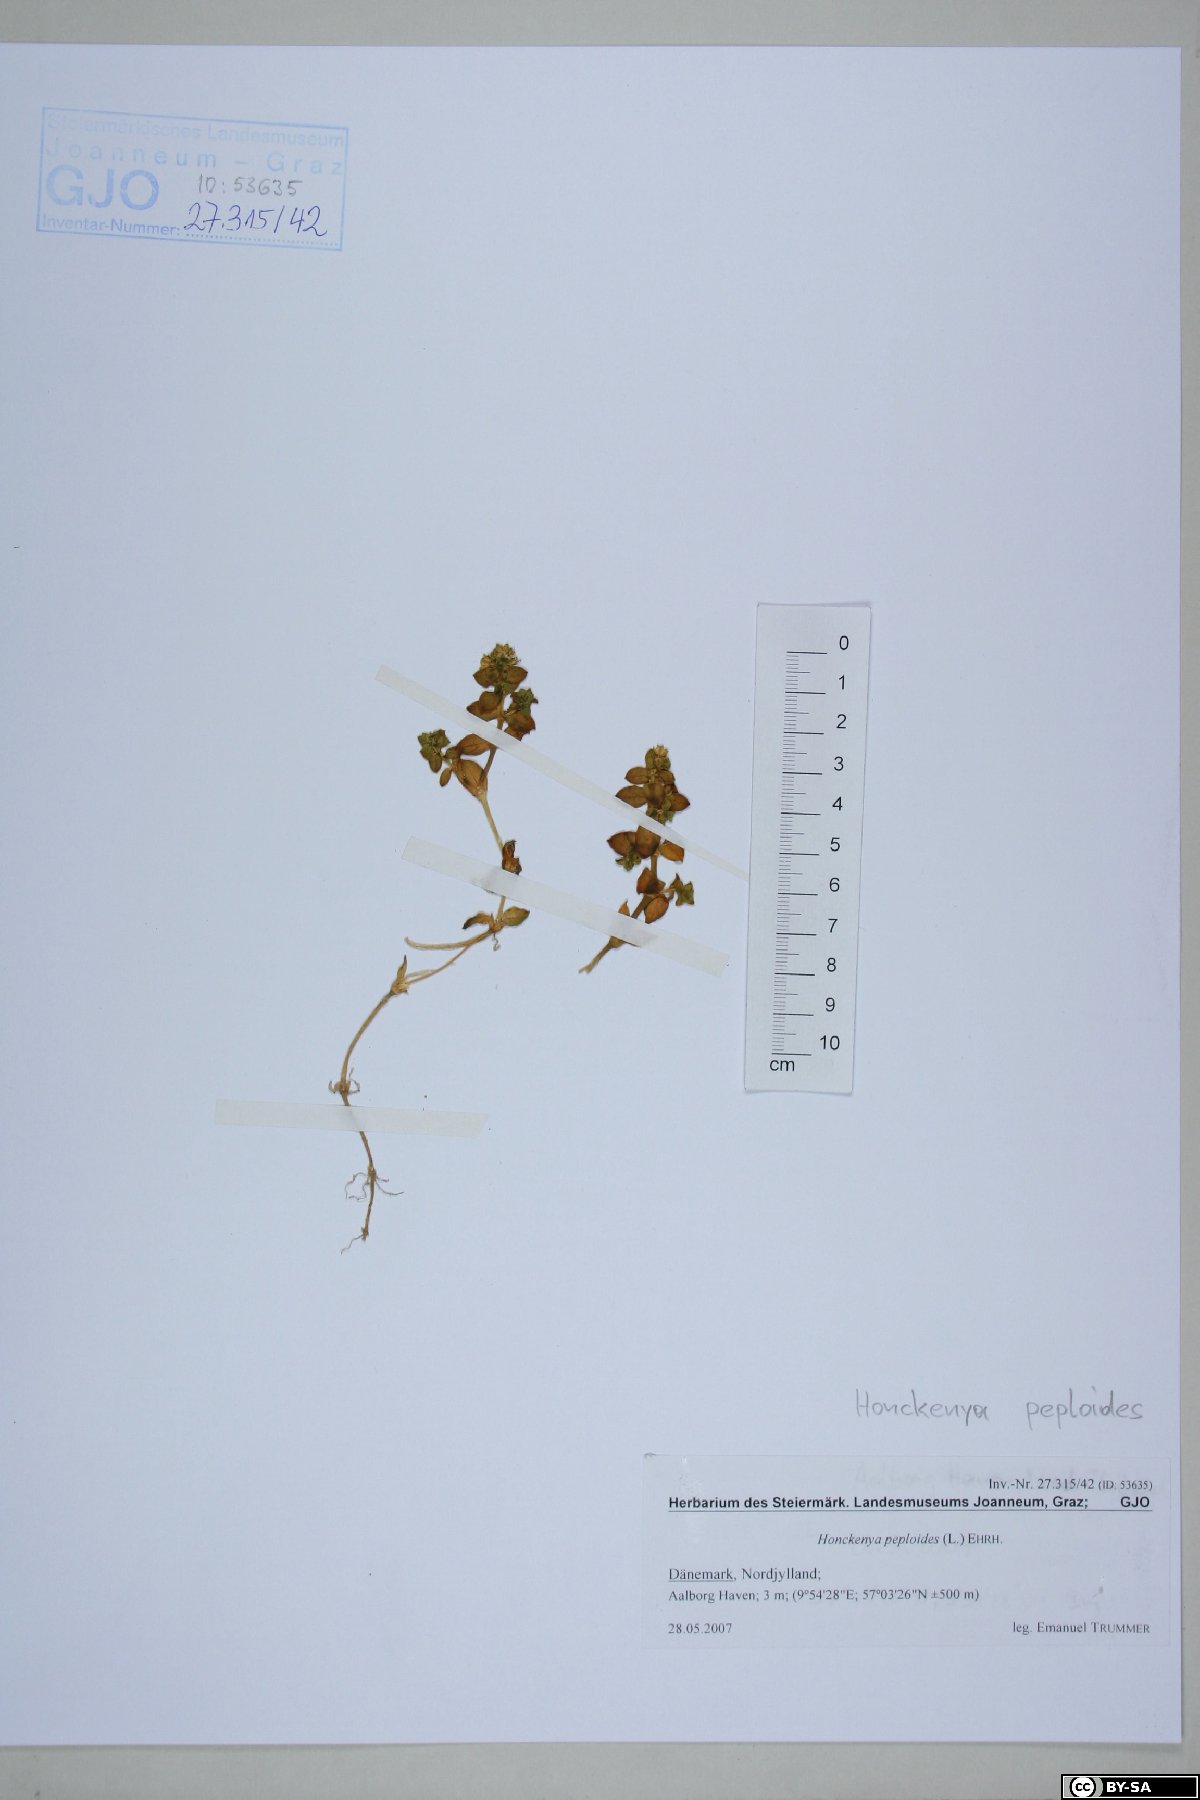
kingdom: Plantae
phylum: Tracheophyta
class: Magnoliopsida
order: Caryophyllales
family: Caryophyllaceae
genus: Honckenya
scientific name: Honckenya peploides
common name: Sea sandwort
